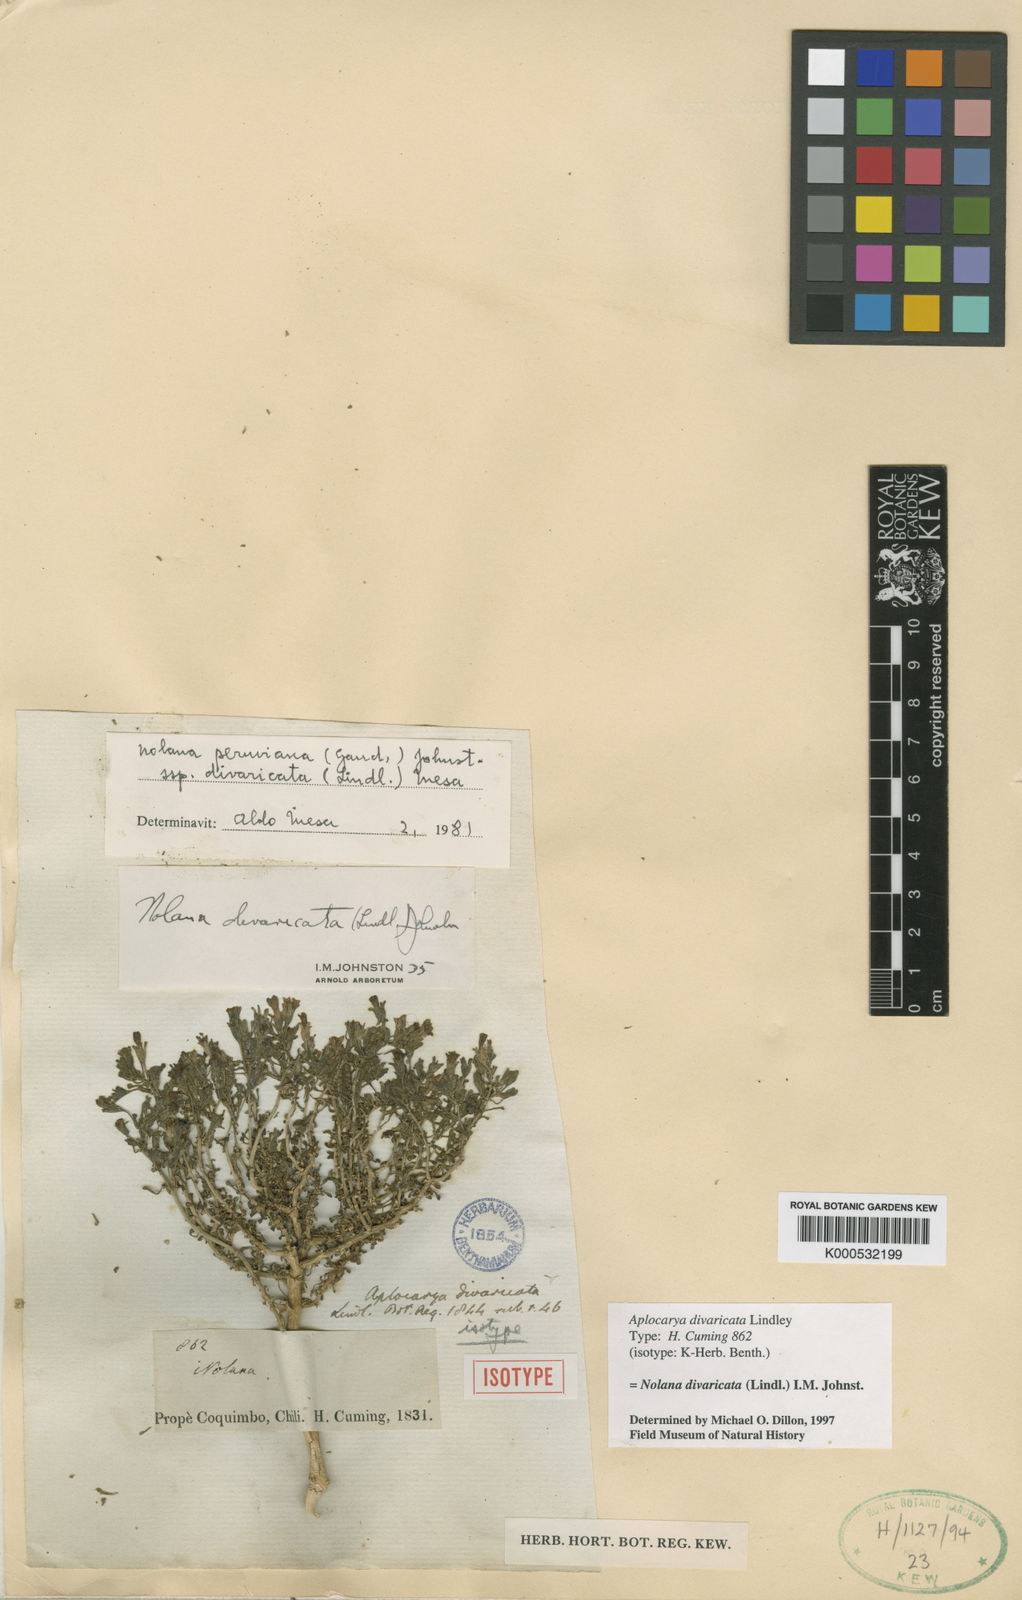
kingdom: Plantae
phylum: Tracheophyta
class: Magnoliopsida
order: Solanales
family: Solanaceae
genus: Nolana
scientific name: Nolana divaricata
